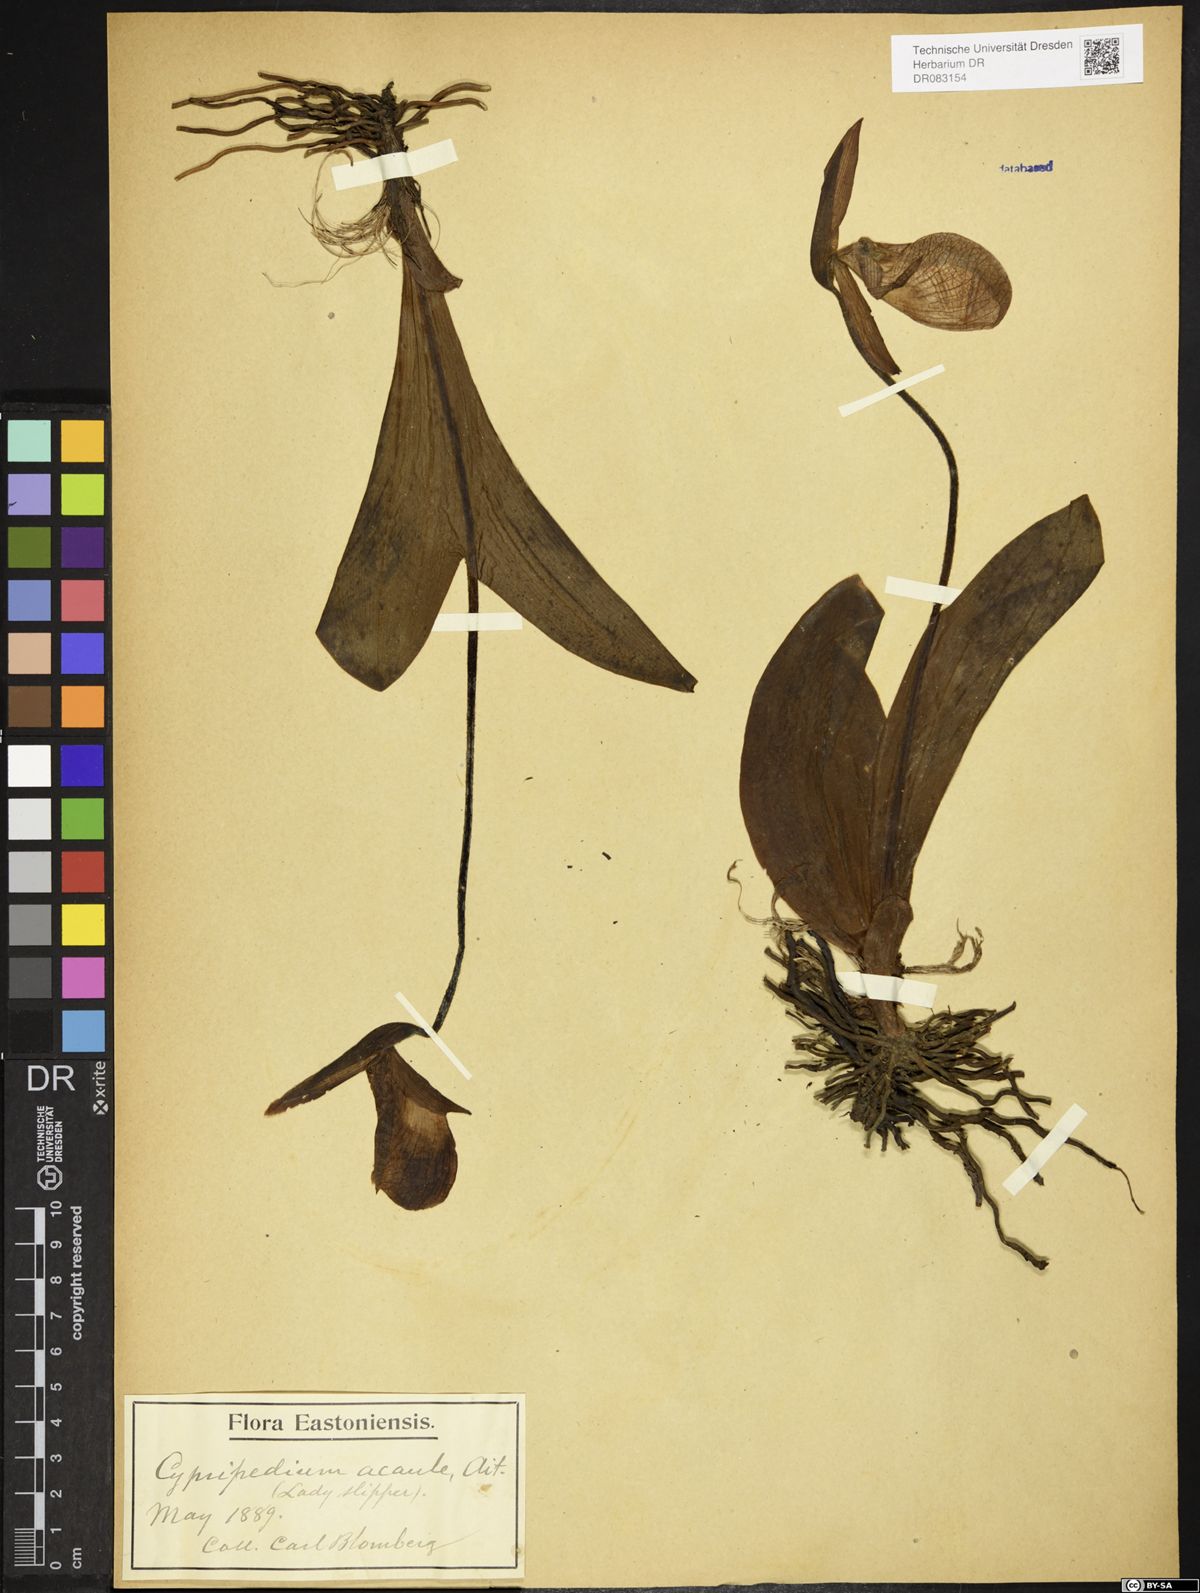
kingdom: Plantae
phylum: Tracheophyta
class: Liliopsida
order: Asparagales
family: Orchidaceae
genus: Cypripedium
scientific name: Cypripedium acaule
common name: Pink lady's-slipper
